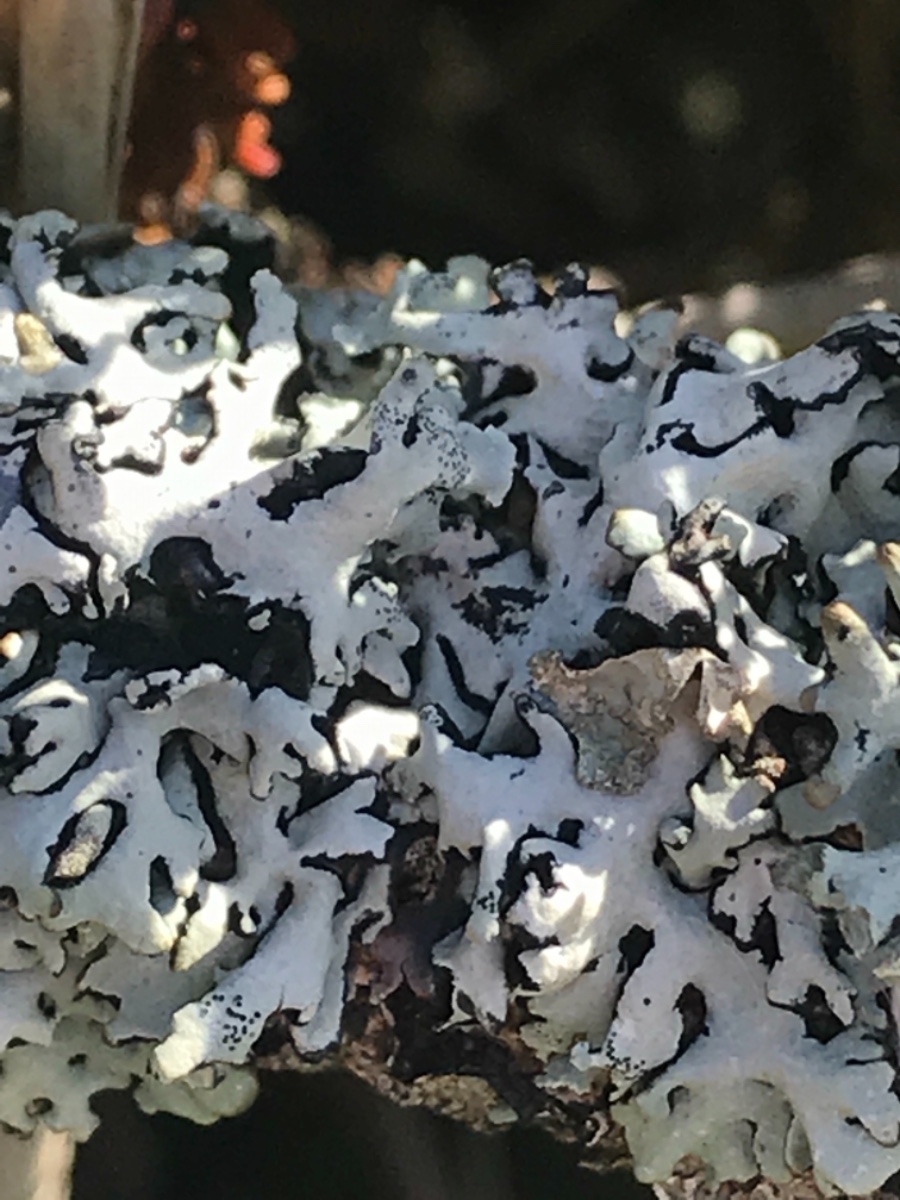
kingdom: Fungi
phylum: Ascomycota
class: Lecanoromycetes
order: Lecanorales
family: Parmeliaceae
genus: Hypogymnia
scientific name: Hypogymnia physodes
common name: almindelig kvistlav
